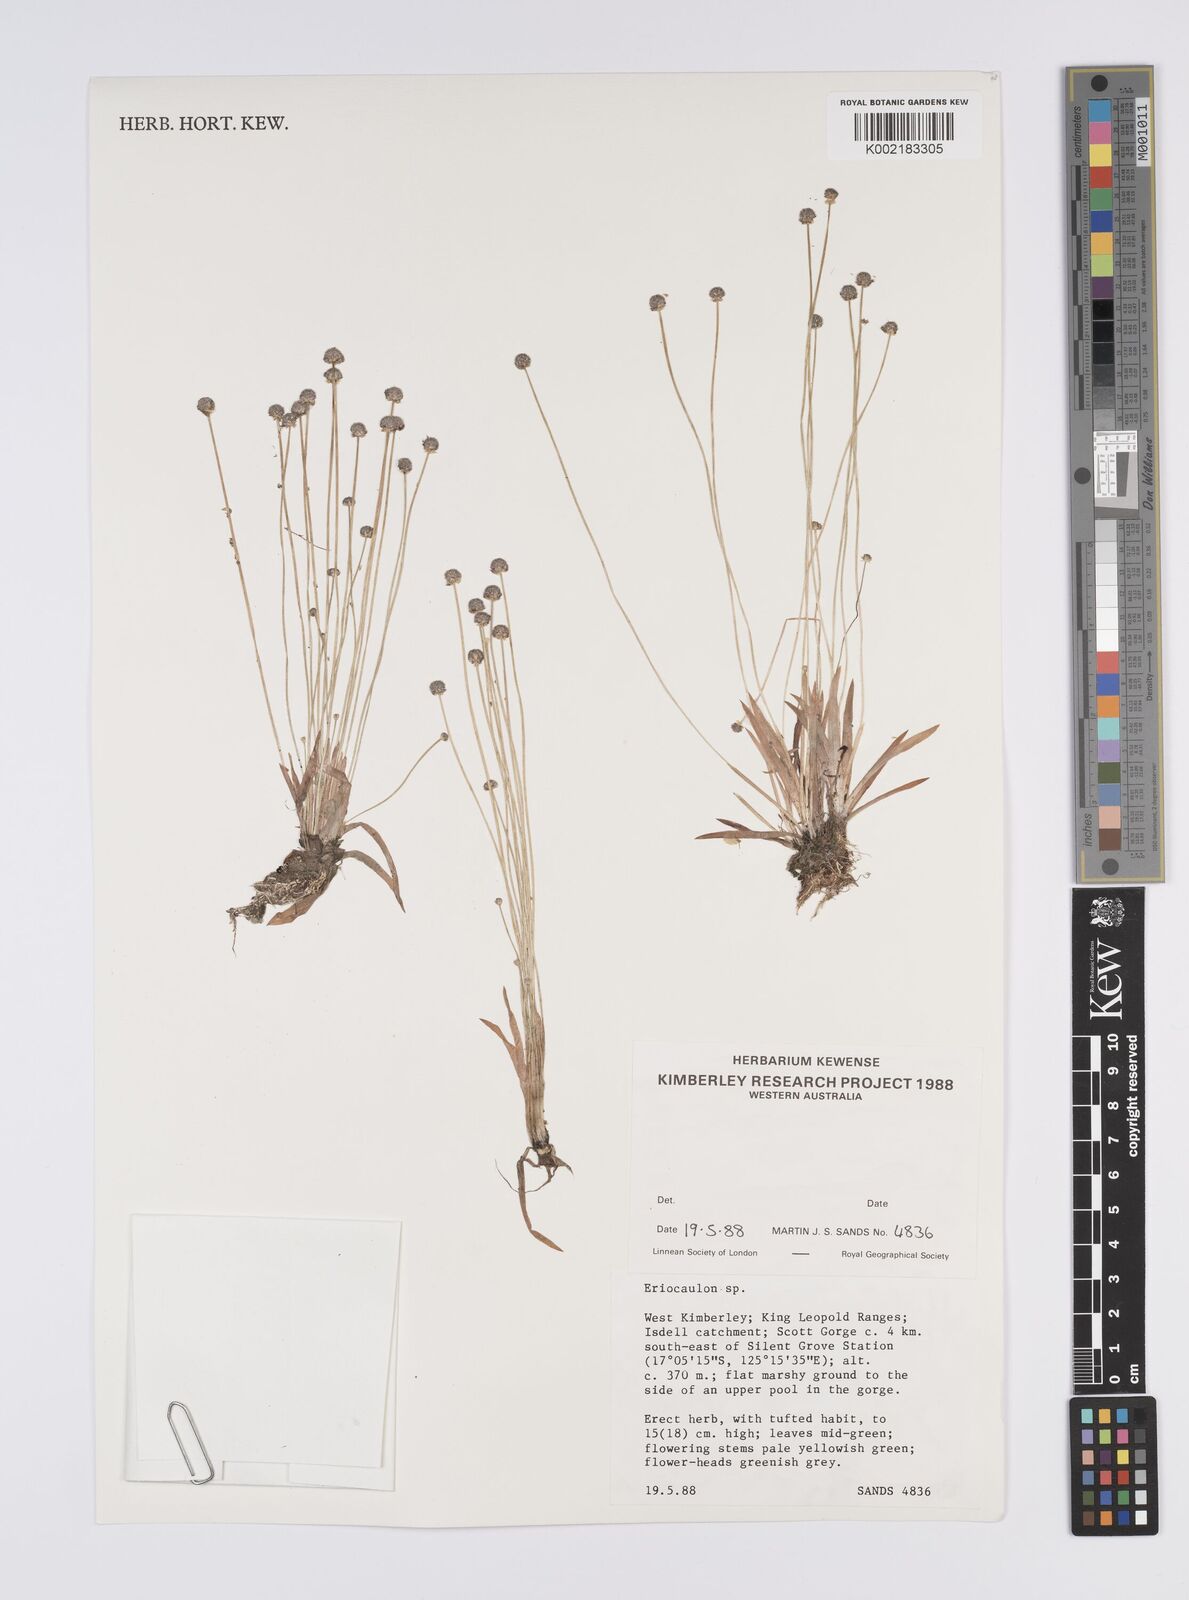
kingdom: Plantae
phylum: Tracheophyta
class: Liliopsida
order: Poales
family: Eriocaulaceae
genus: Eriocaulon
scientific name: Eriocaulon
